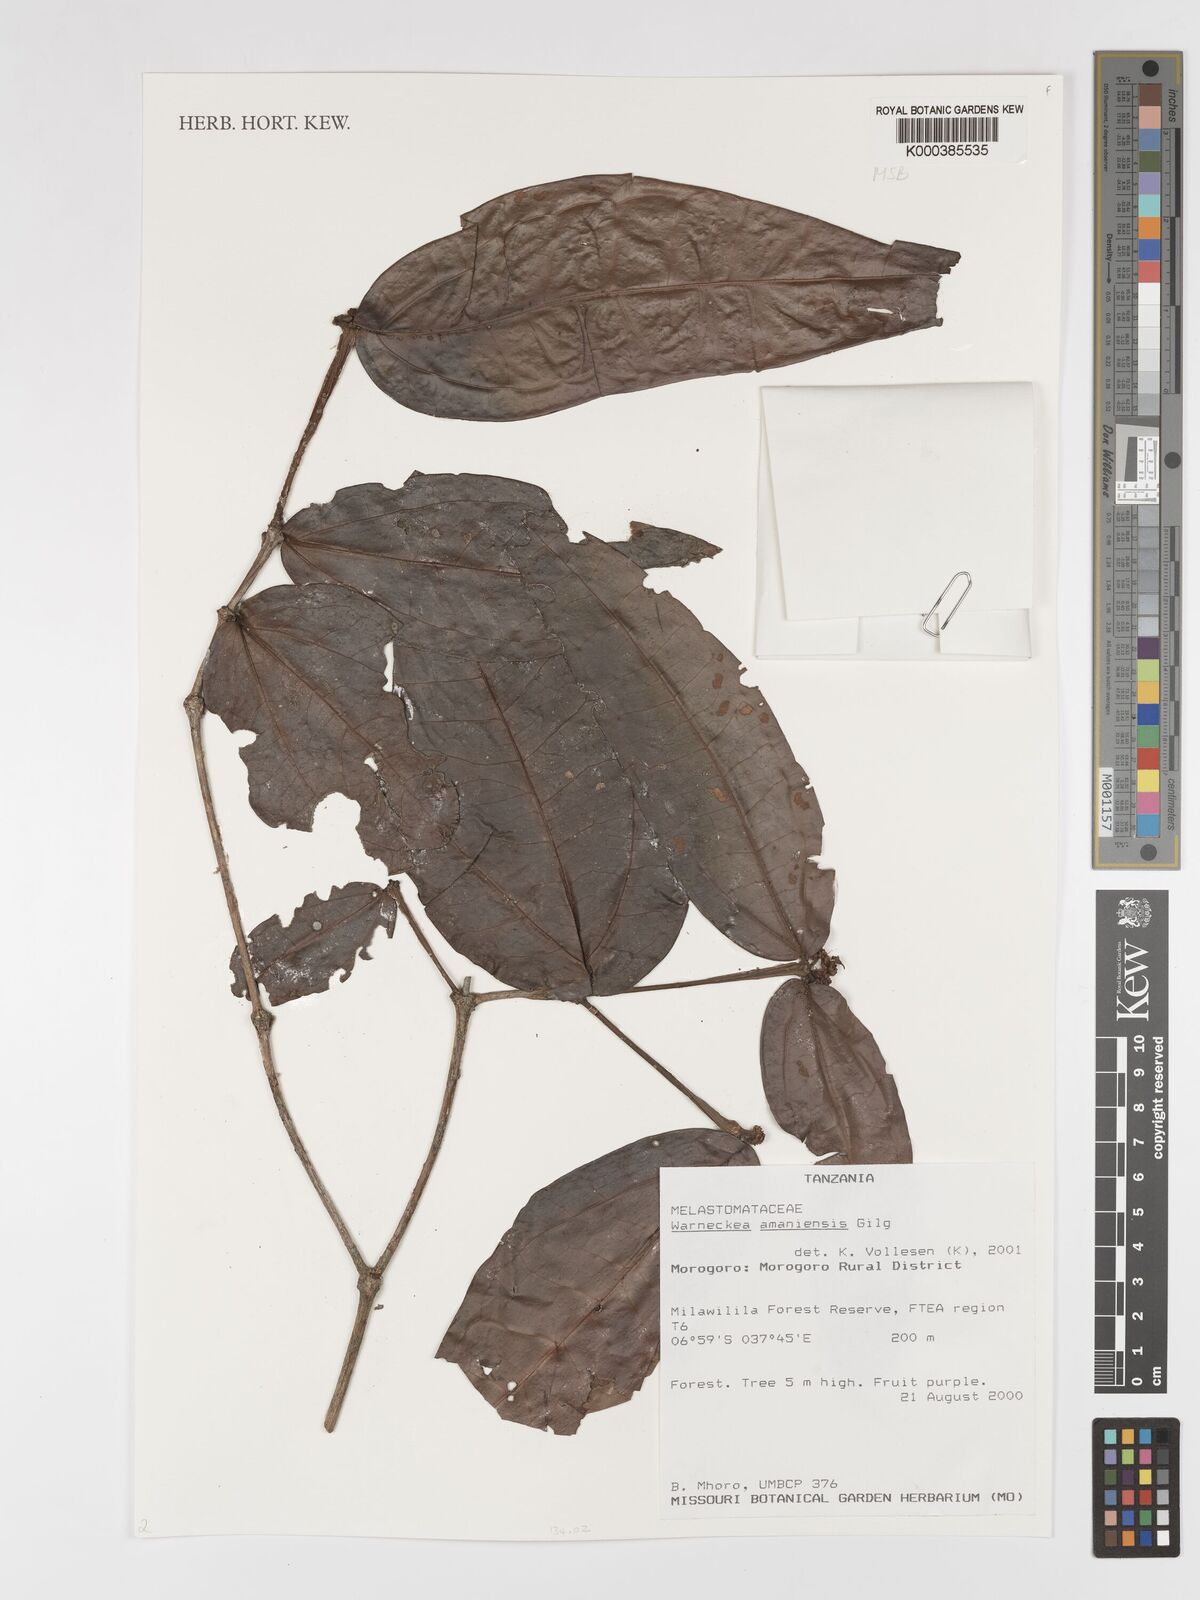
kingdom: Plantae
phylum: Tracheophyta
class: Magnoliopsida
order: Myrtales
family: Melastomataceae
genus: Warneckea
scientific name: Warneckea amaniensis
